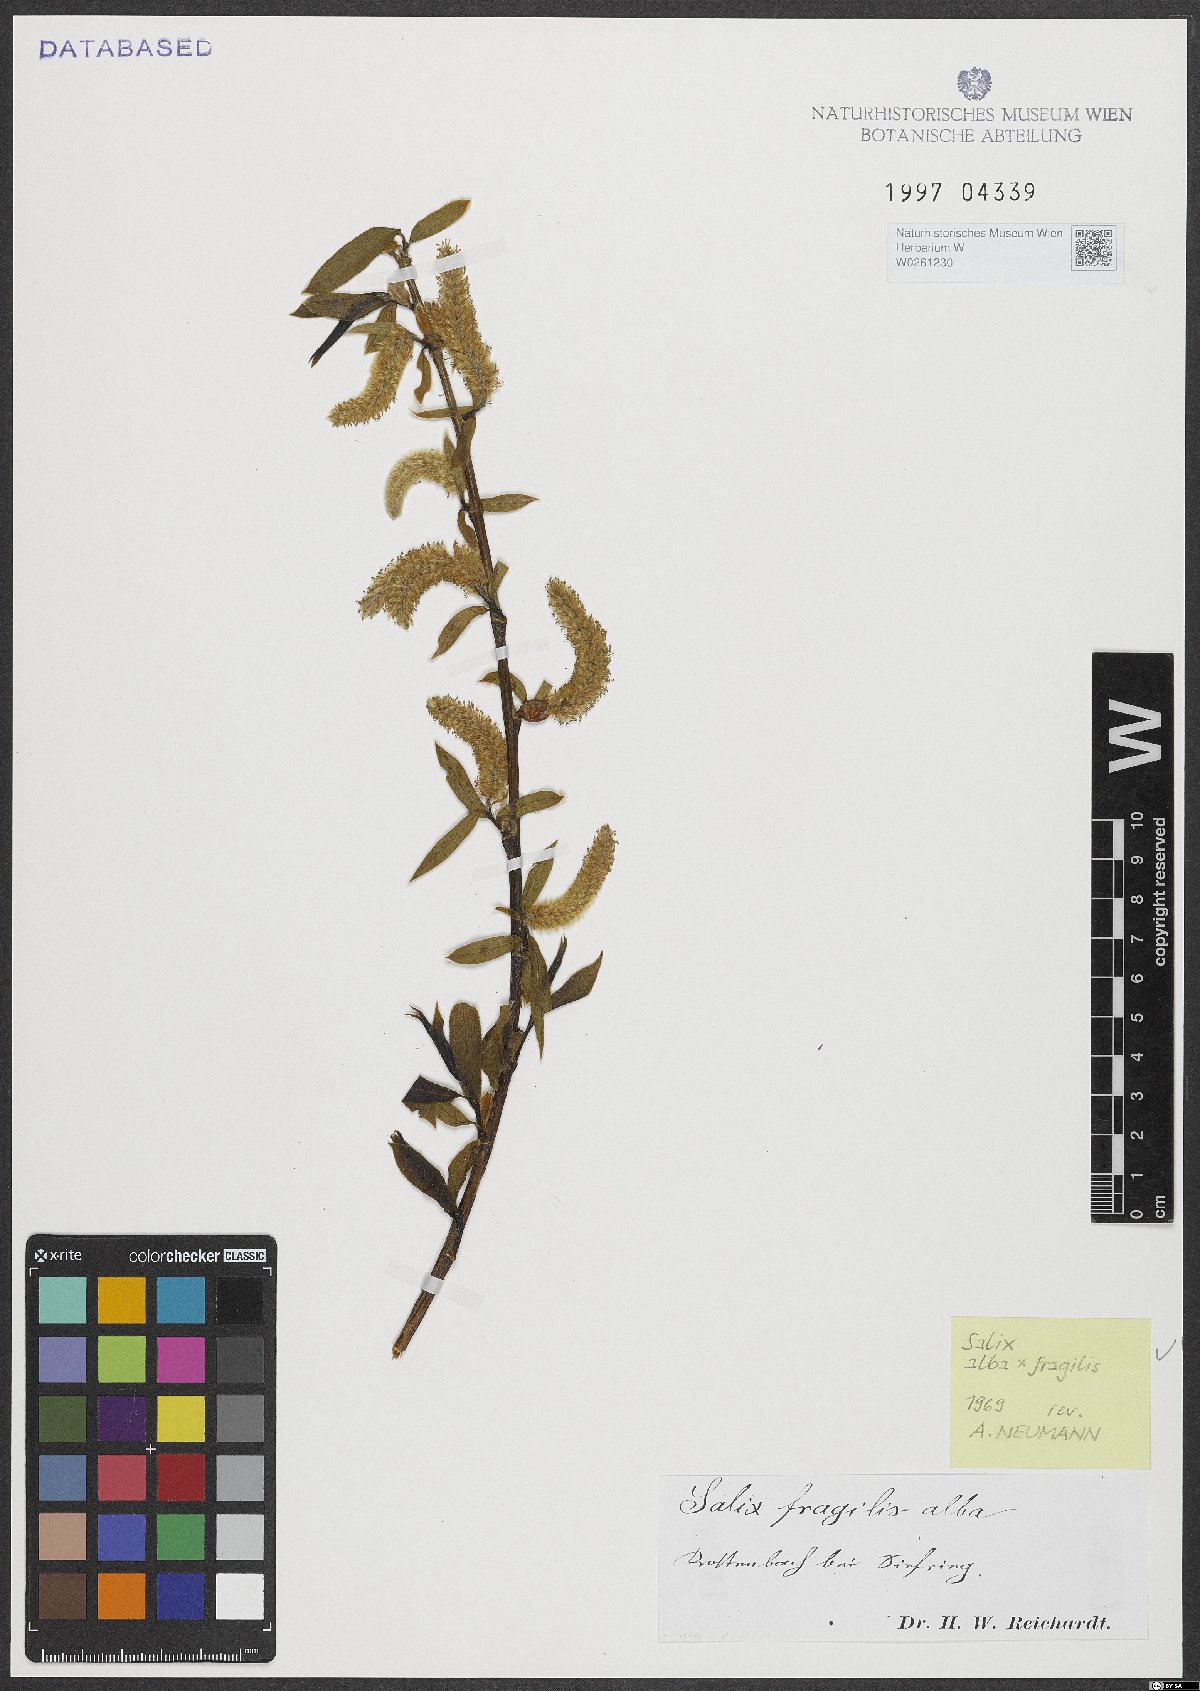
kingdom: Plantae
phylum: Tracheophyta
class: Magnoliopsida
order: Malpighiales
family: Salicaceae
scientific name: Salicaceae
